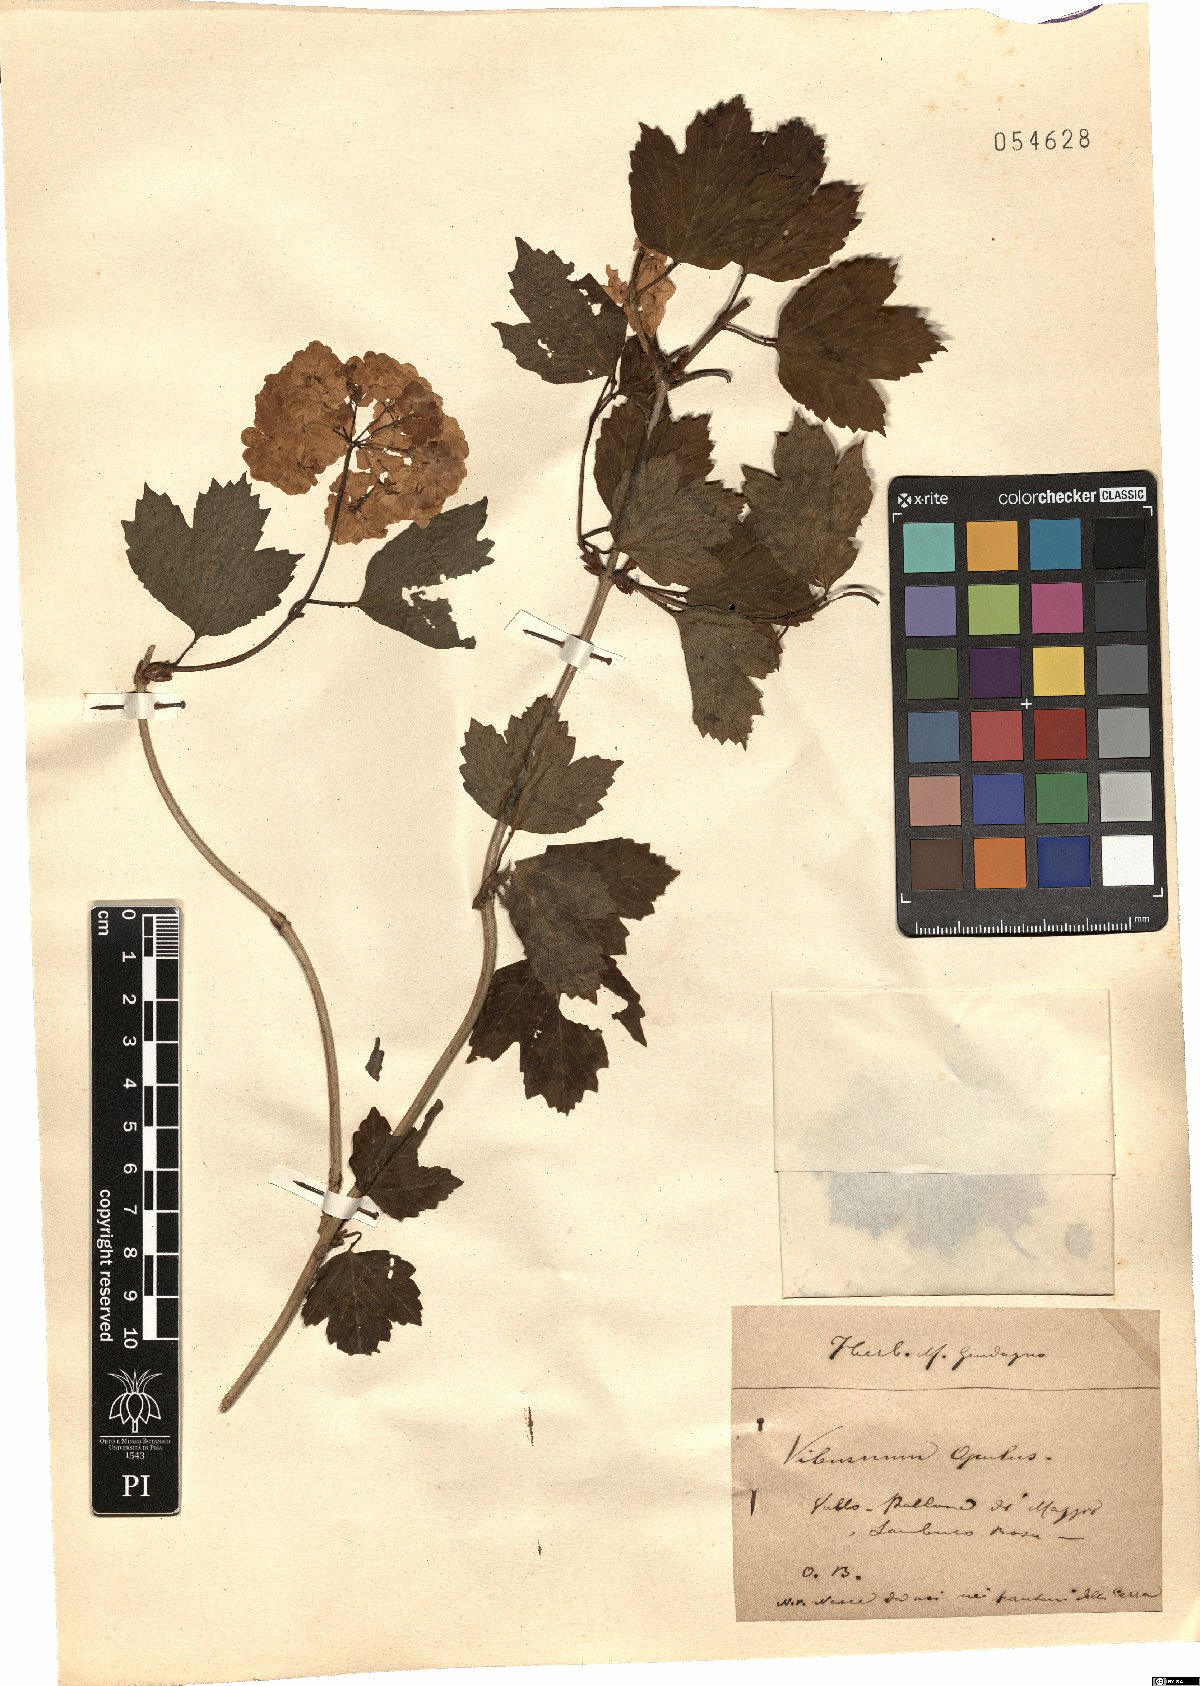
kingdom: Plantae
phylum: Tracheophyta
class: Magnoliopsida
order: Dipsacales
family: Viburnaceae
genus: Viburnum
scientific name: Viburnum opulus
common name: Guelder-rose
